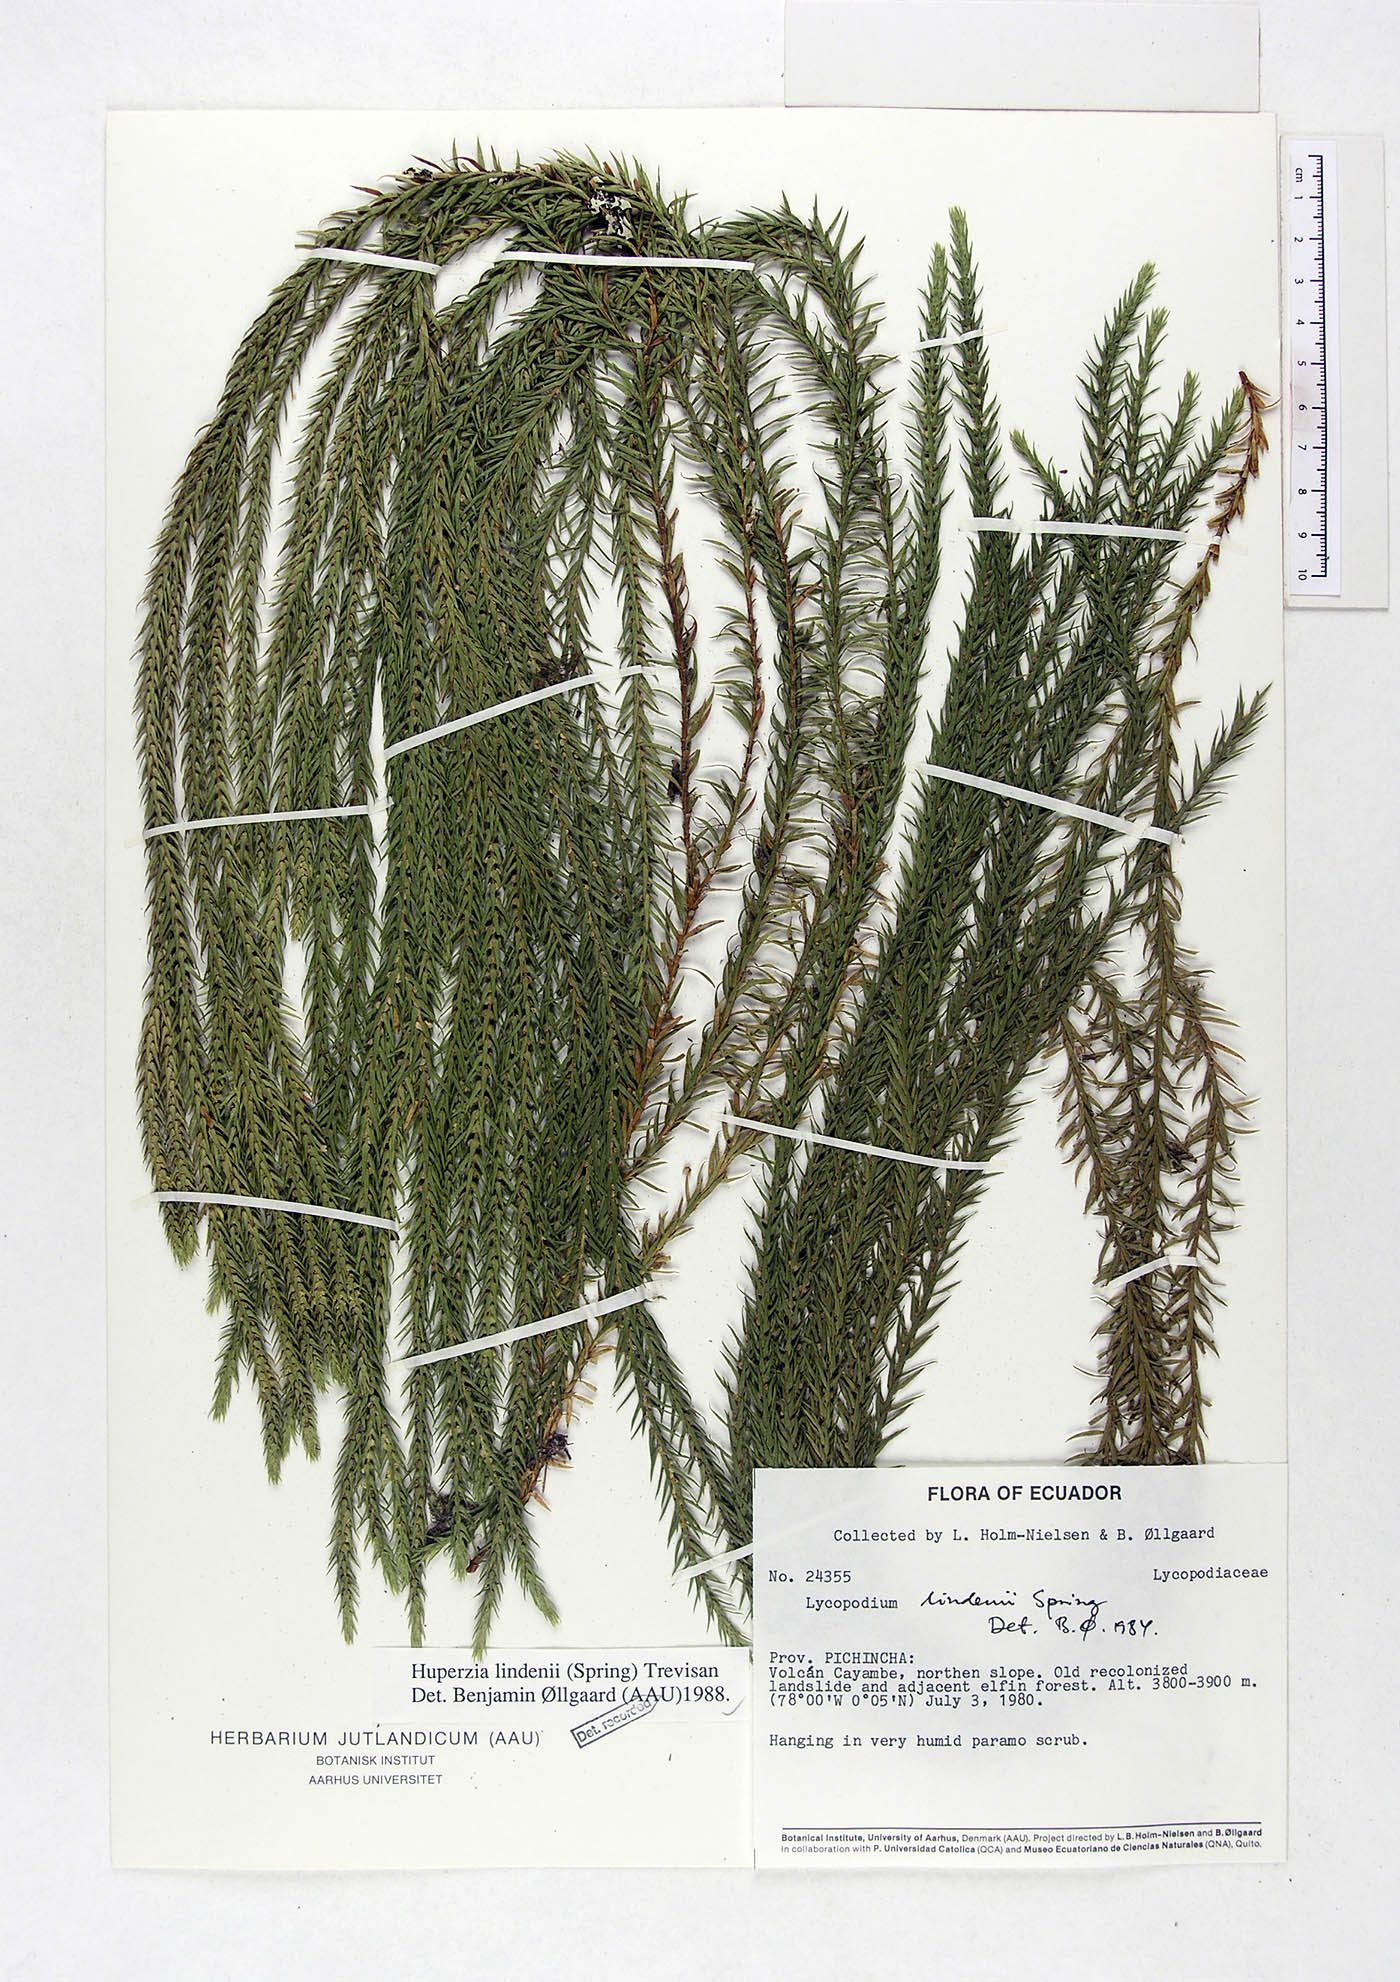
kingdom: Plantae
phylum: Tracheophyta
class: Lycopodiopsida
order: Lycopodiales
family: Lycopodiaceae
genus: Phlegmariurus
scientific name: Phlegmariurus lindenii
